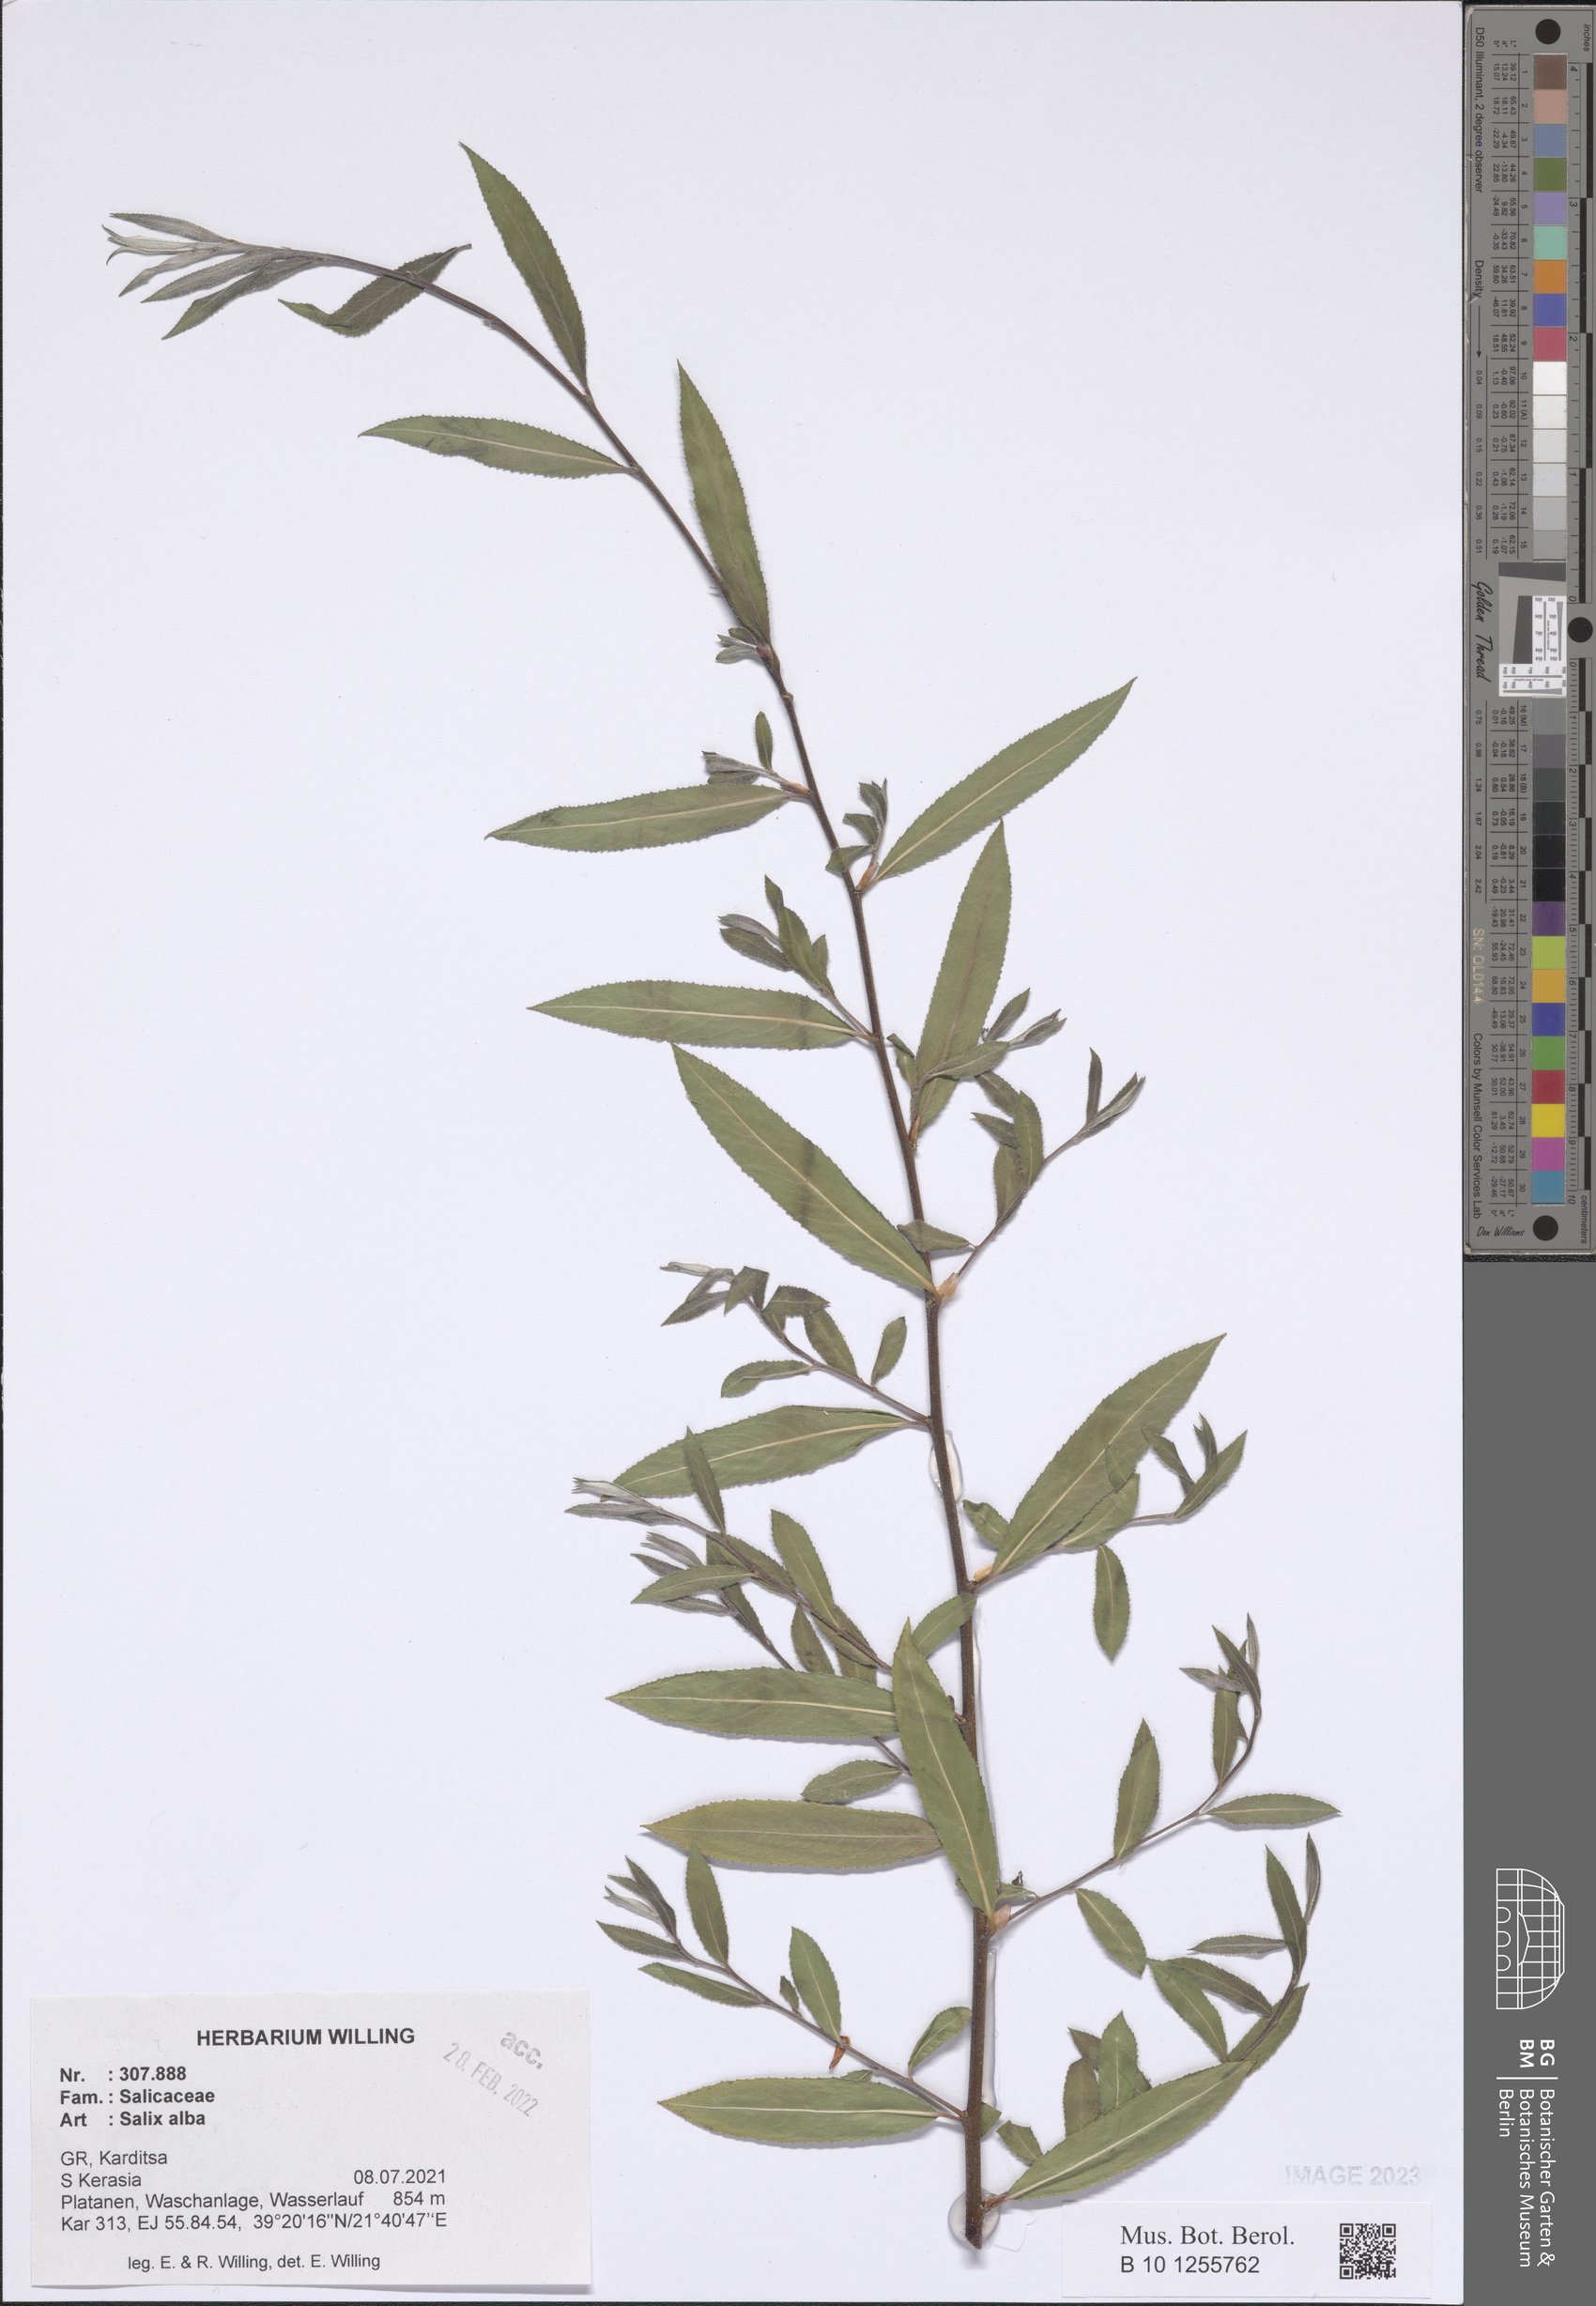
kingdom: Plantae
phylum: Tracheophyta
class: Magnoliopsida
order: Malpighiales
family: Salicaceae
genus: Salix
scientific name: Salix alba
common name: White willow
